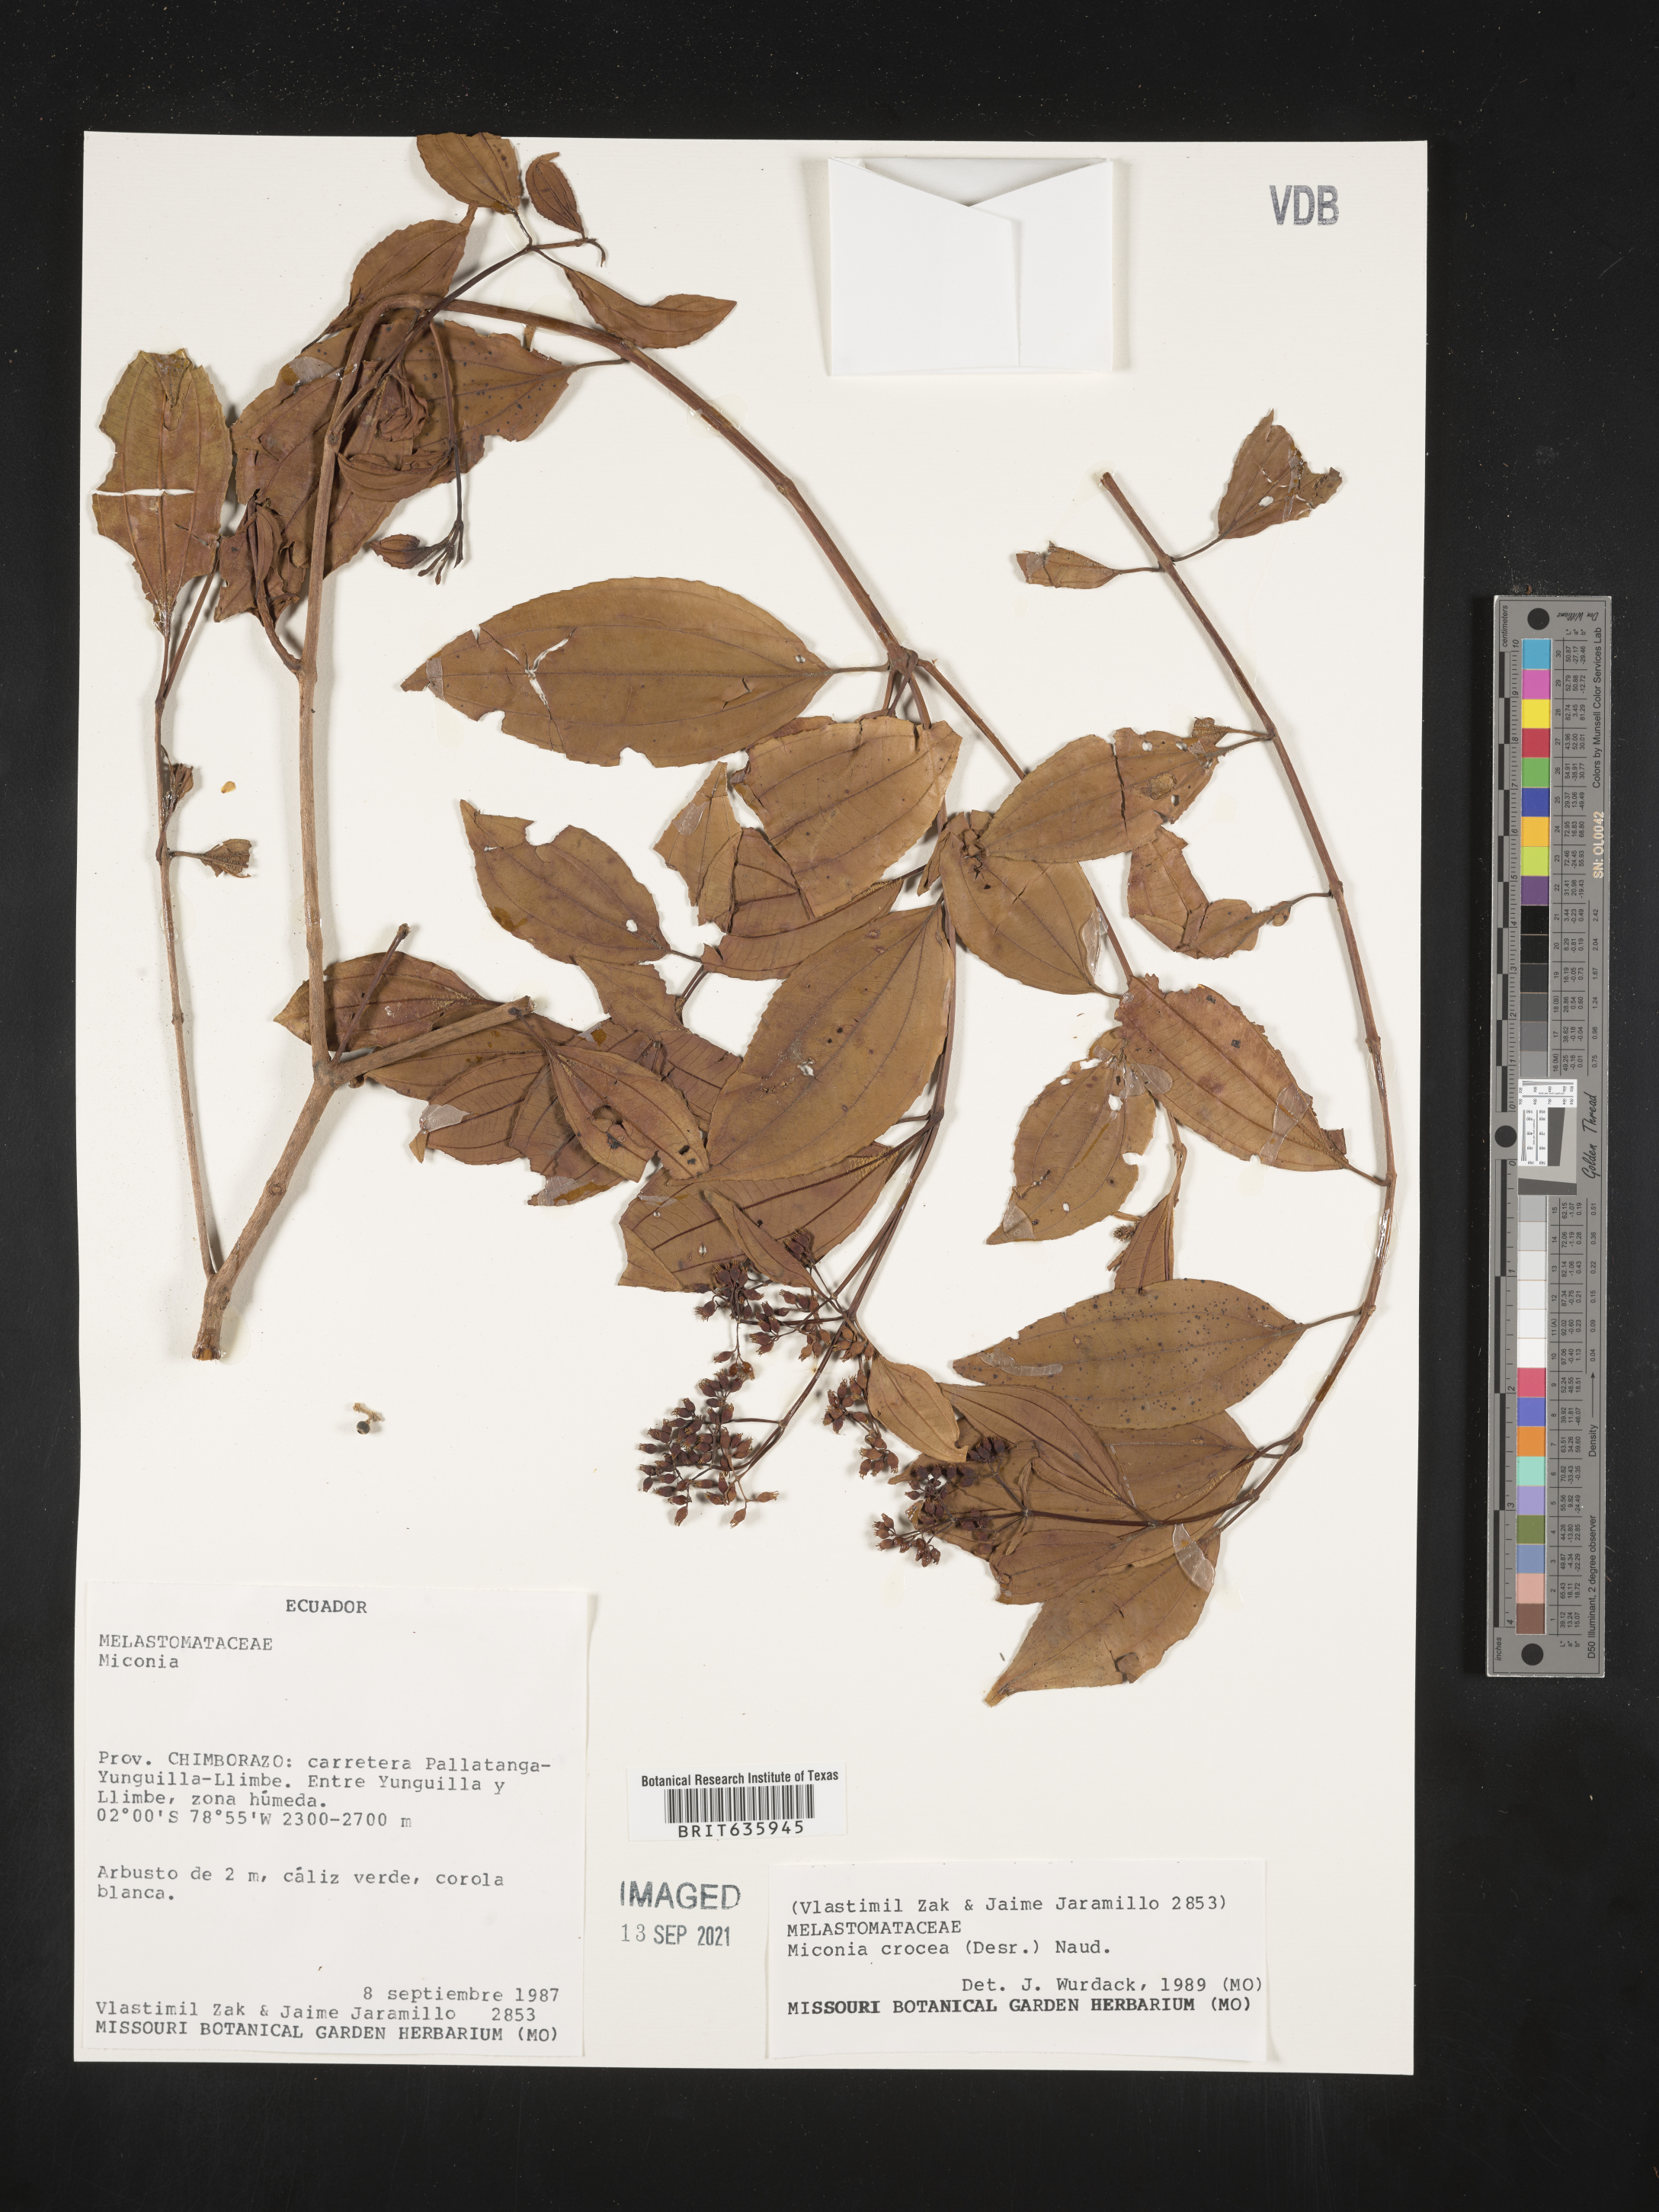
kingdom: Plantae
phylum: Tracheophyta
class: Magnoliopsida
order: Myrtales
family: Melastomataceae
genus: Miconia
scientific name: Miconia
